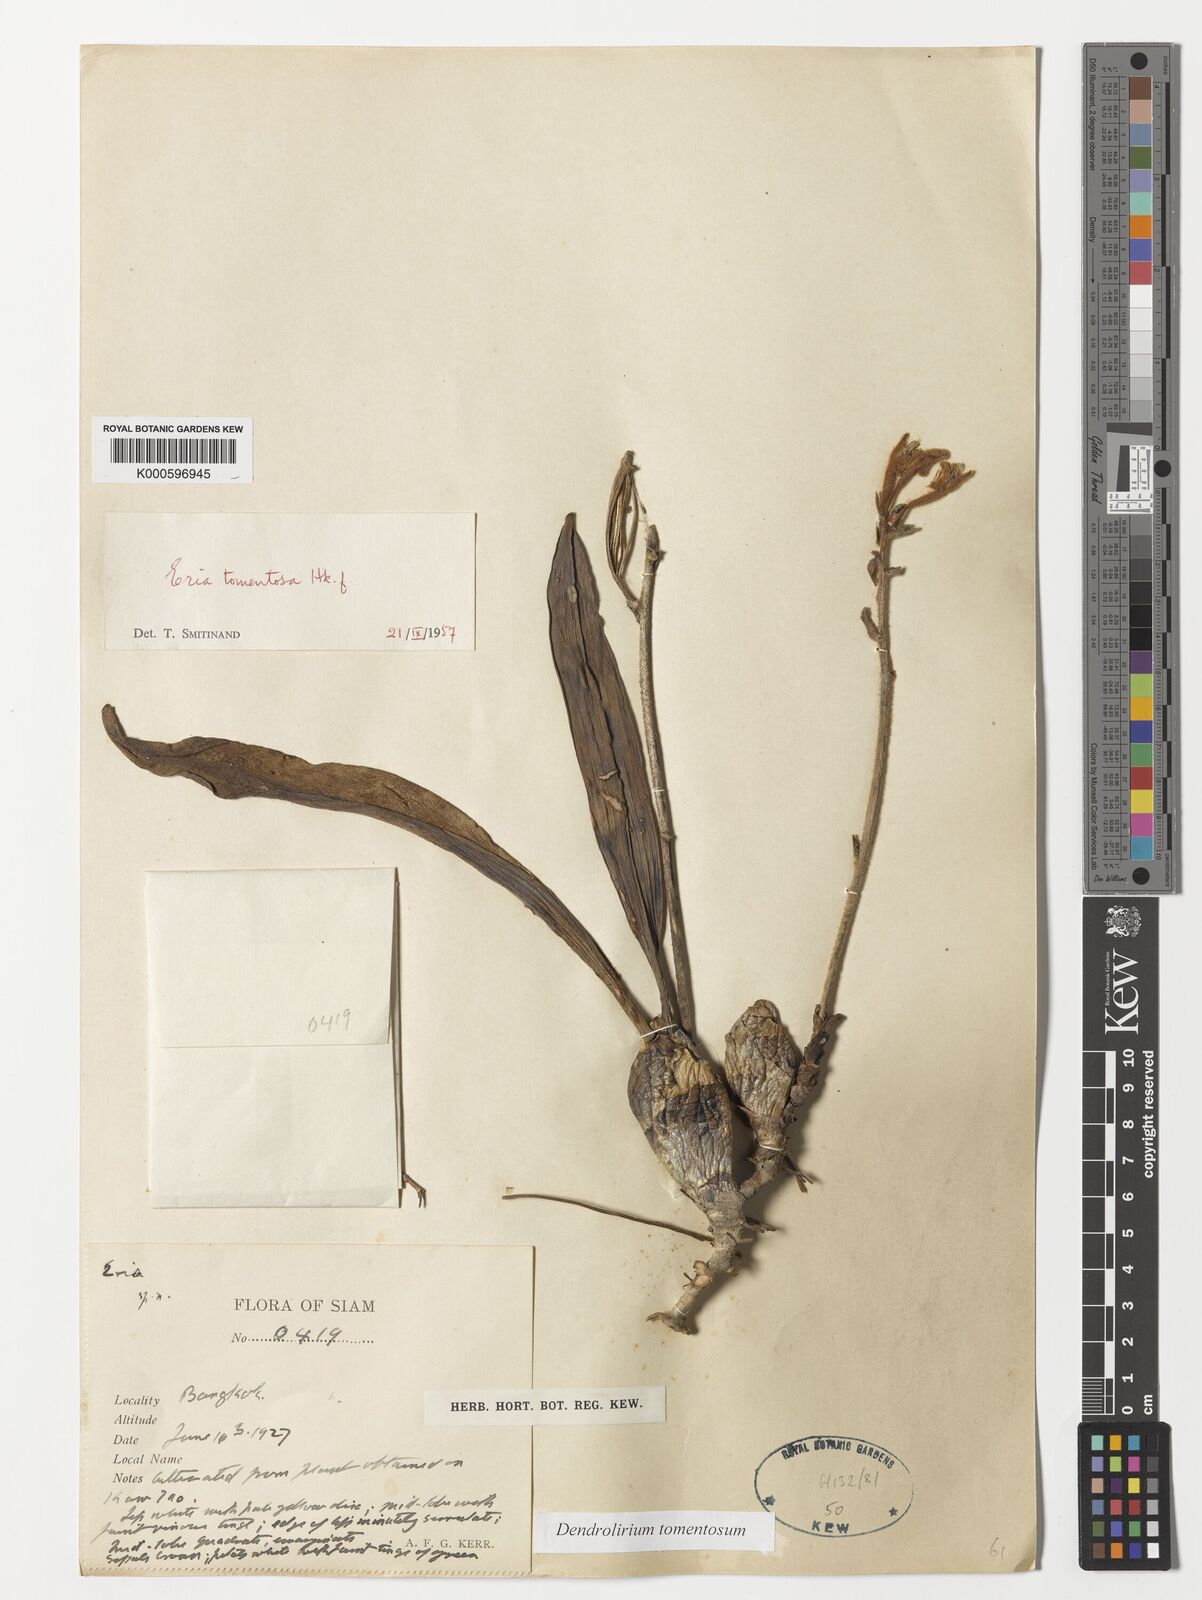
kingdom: Plantae
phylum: Tracheophyta
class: Liliopsida
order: Asparagales
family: Orchidaceae
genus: Dendrolirium
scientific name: Dendrolirium tomentosum
